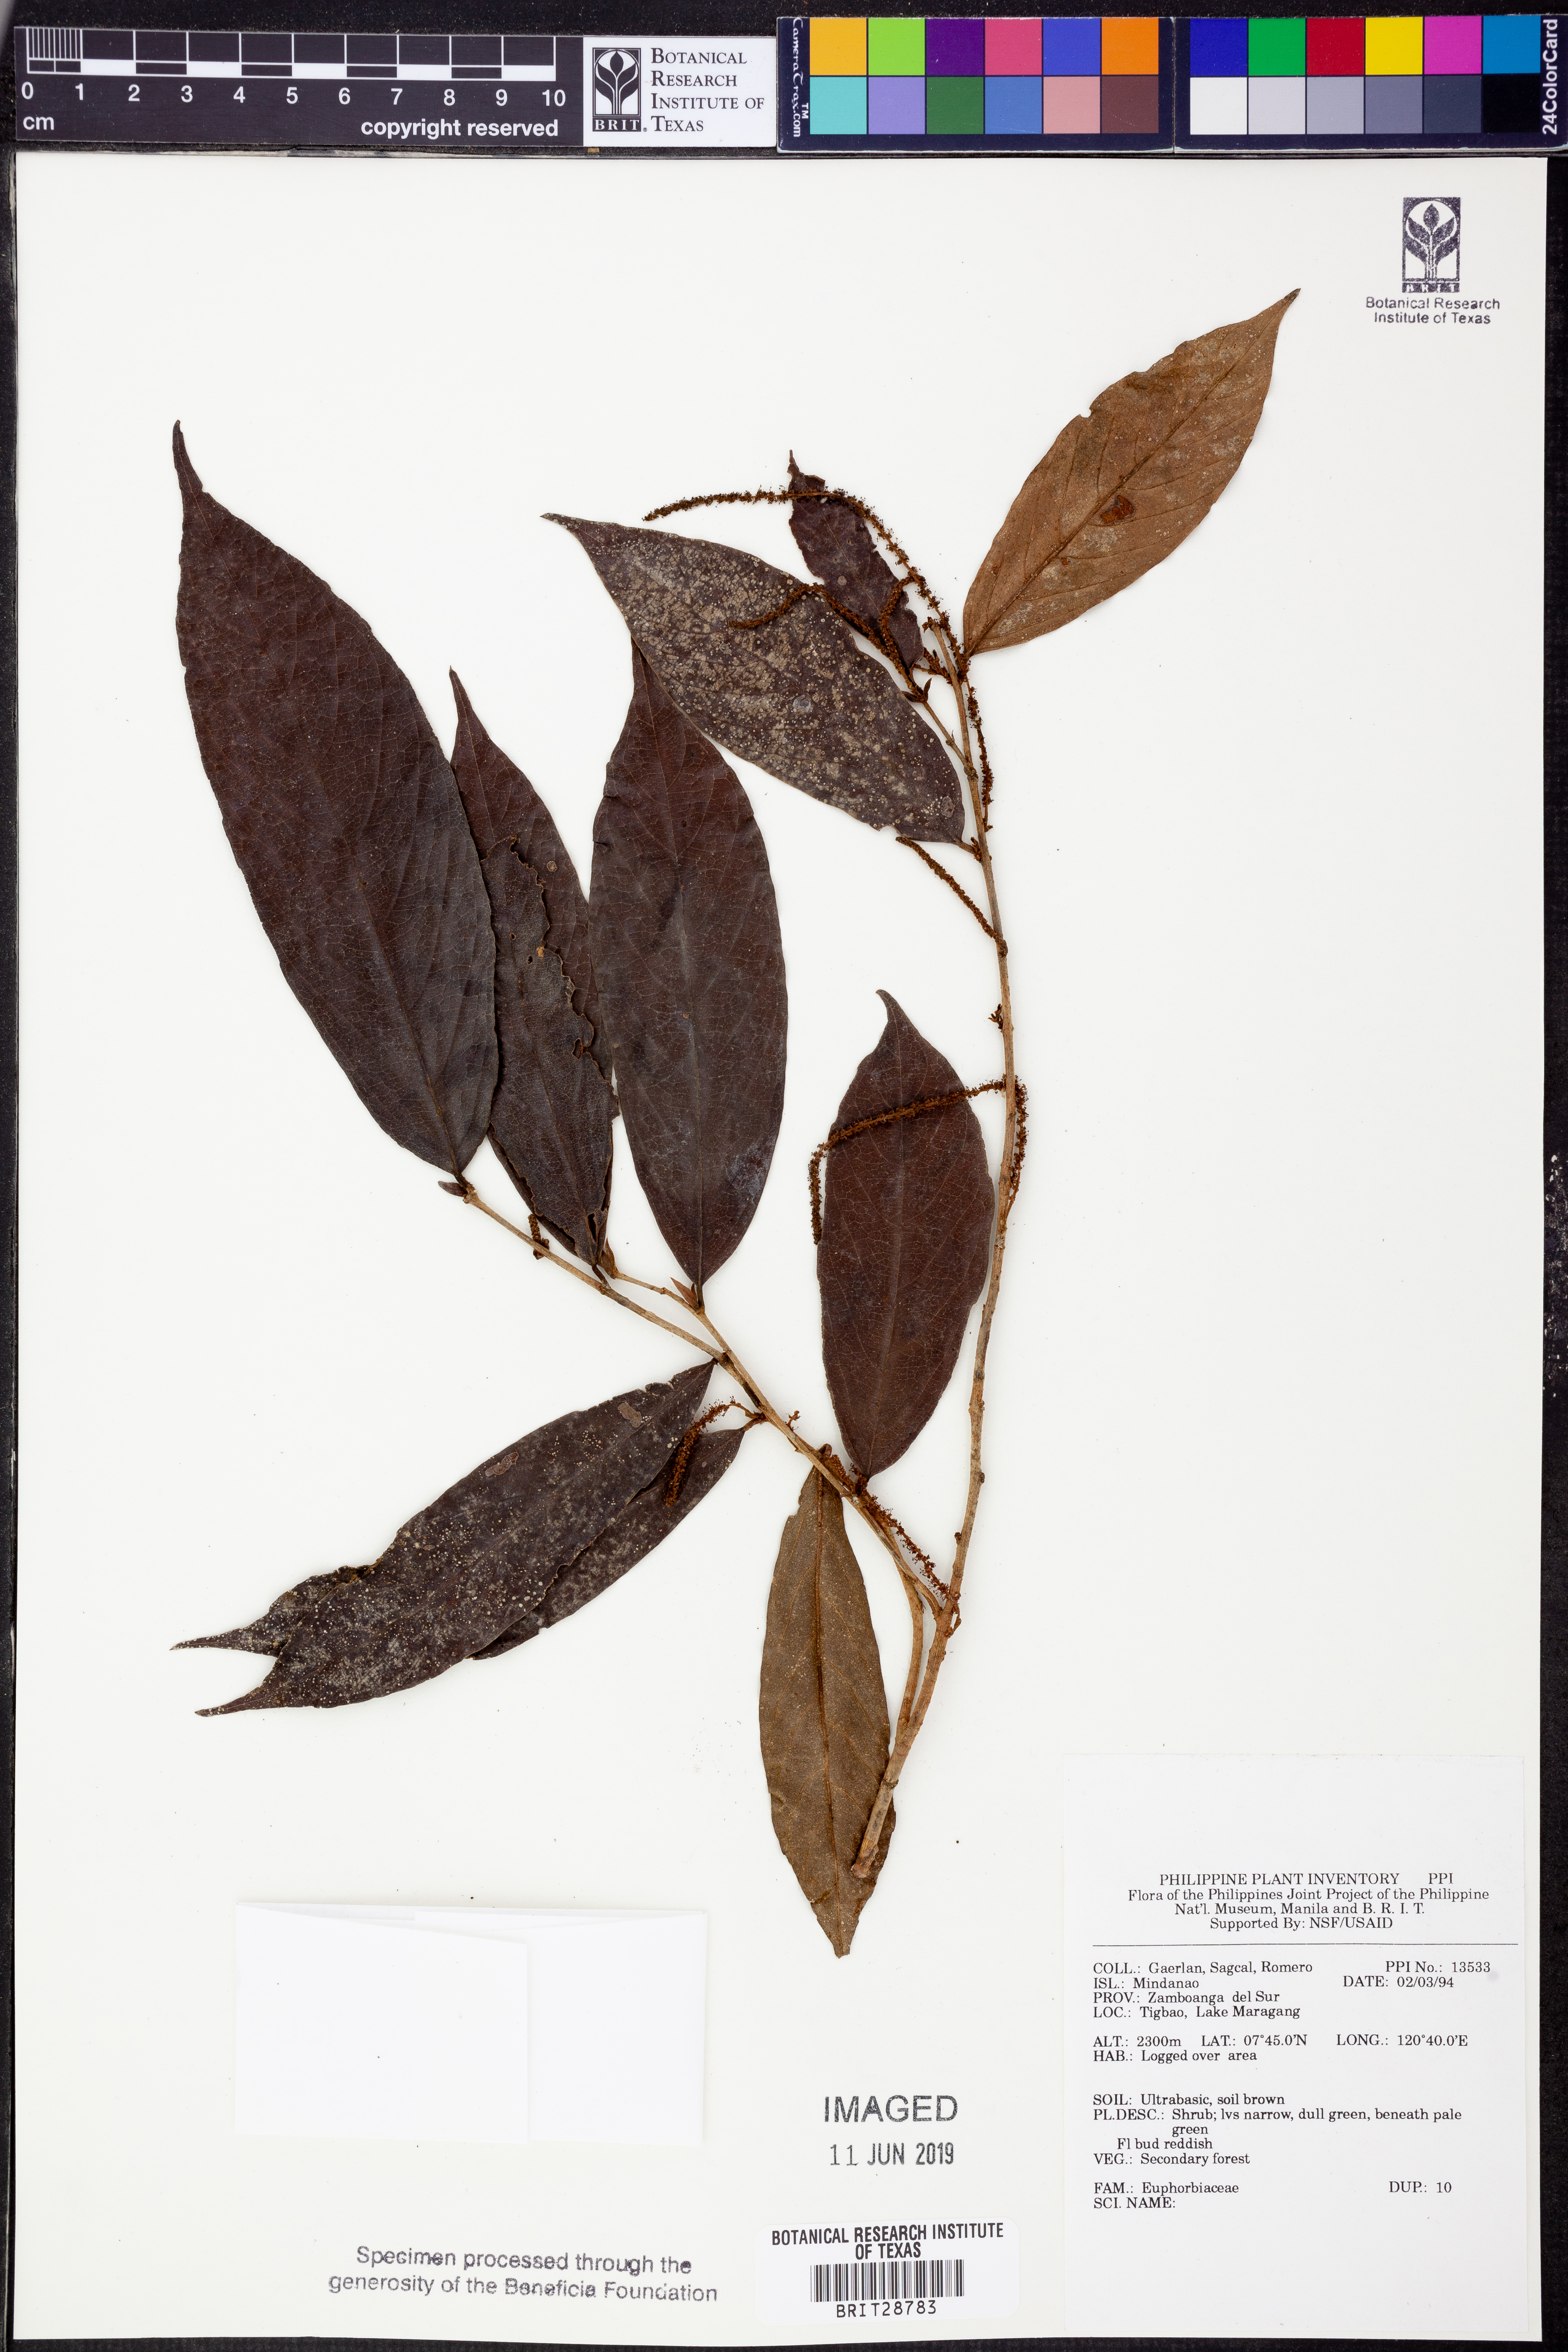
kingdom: Plantae
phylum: Tracheophyta
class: Magnoliopsida
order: Malpighiales
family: Euphorbiaceae
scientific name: Euphorbiaceae
